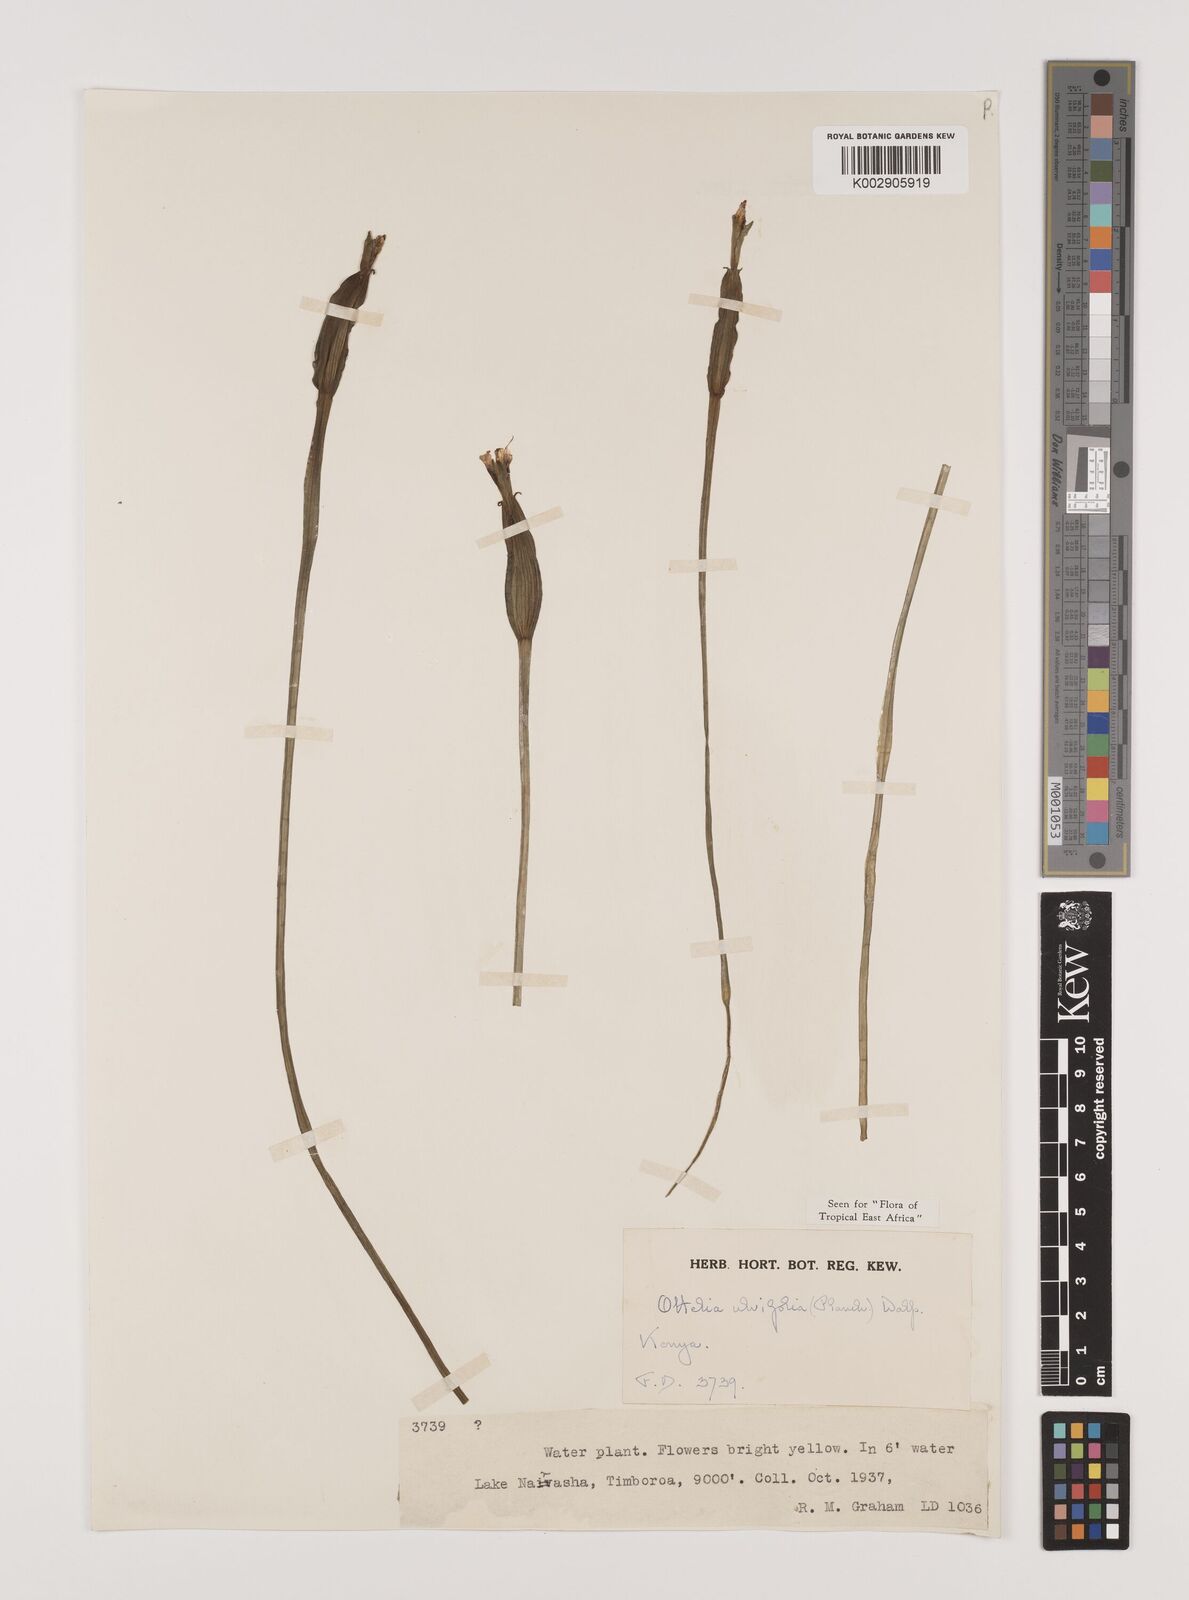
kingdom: Plantae
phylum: Tracheophyta
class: Liliopsida
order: Alismatales
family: Hydrocharitaceae
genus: Ottelia
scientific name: Ottelia ulvifolia
